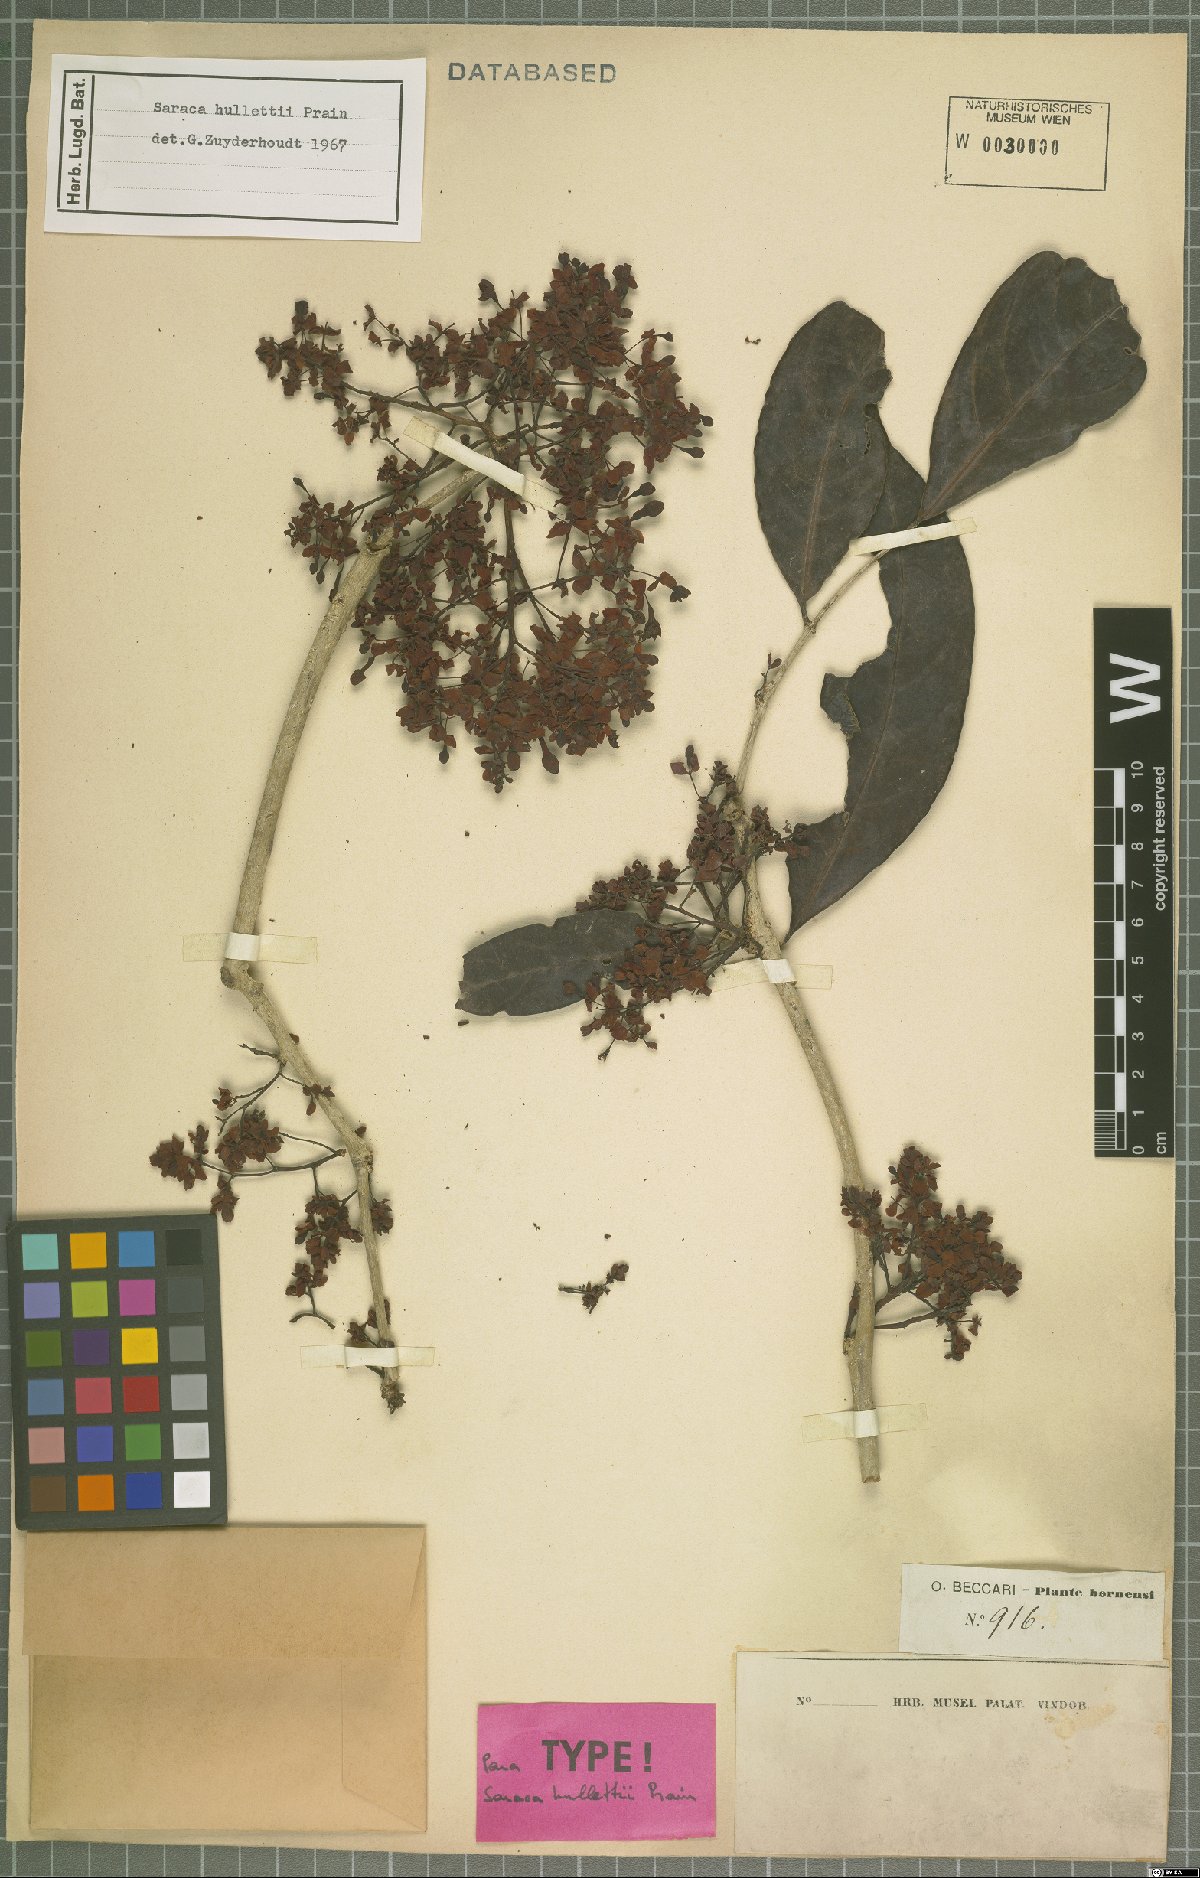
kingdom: Plantae
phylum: Tracheophyta
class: Magnoliopsida
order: Fabales
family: Fabaceae
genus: Saraca
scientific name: Saraca hullettii
